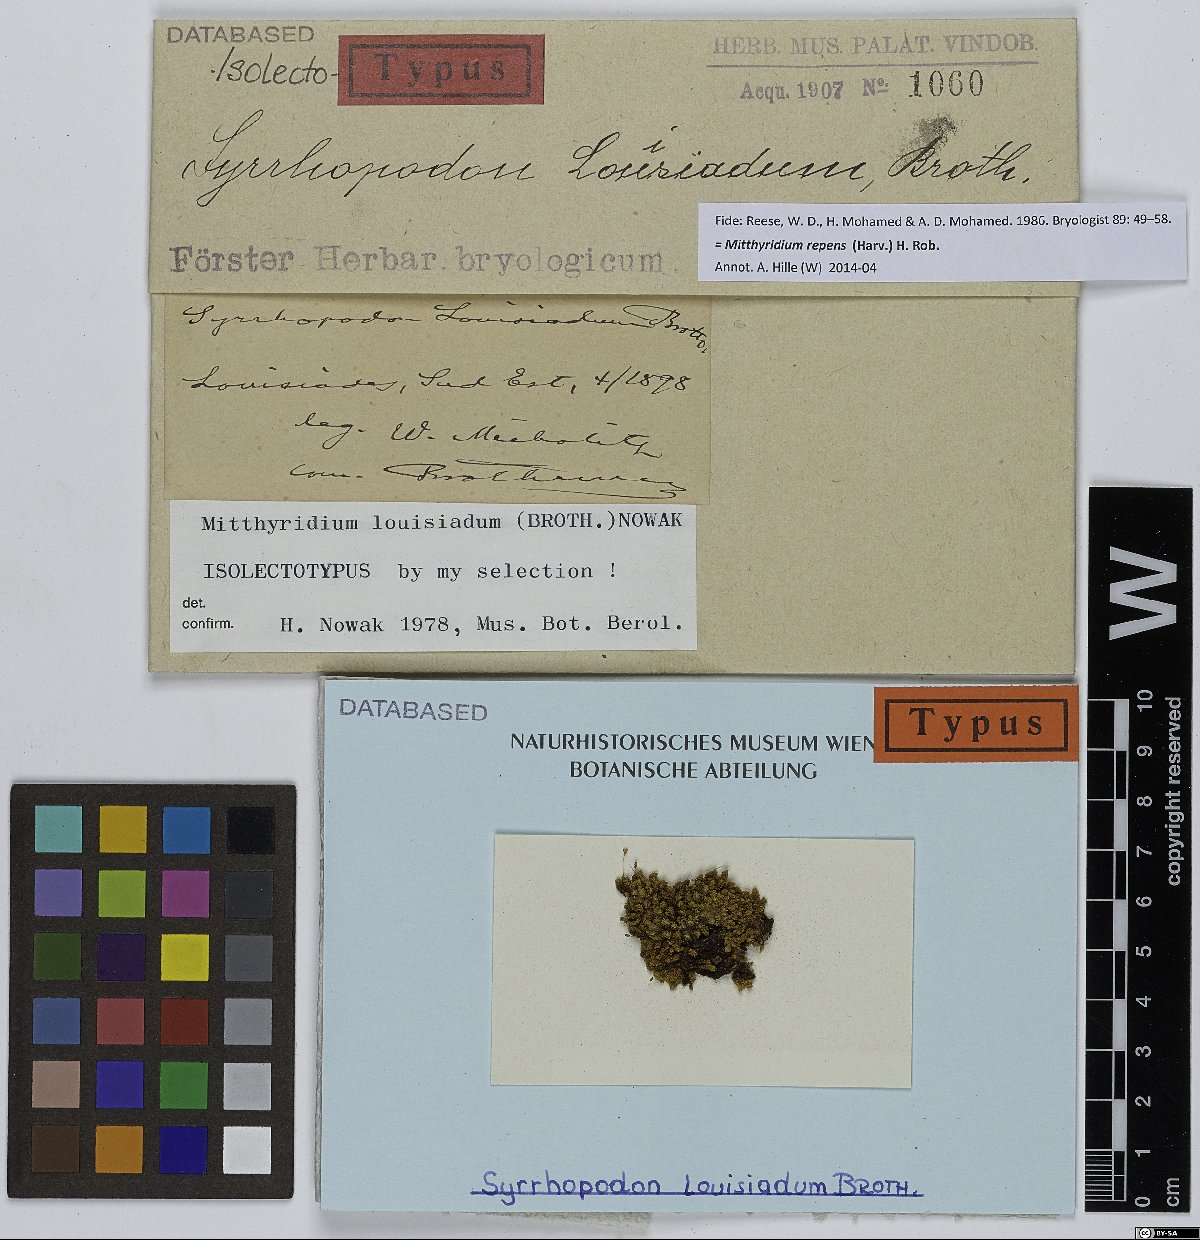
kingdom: Plantae
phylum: Bryophyta
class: Bryopsida
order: Dicranales
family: Calymperaceae
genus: Mitthyridium
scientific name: Mitthyridium repens
